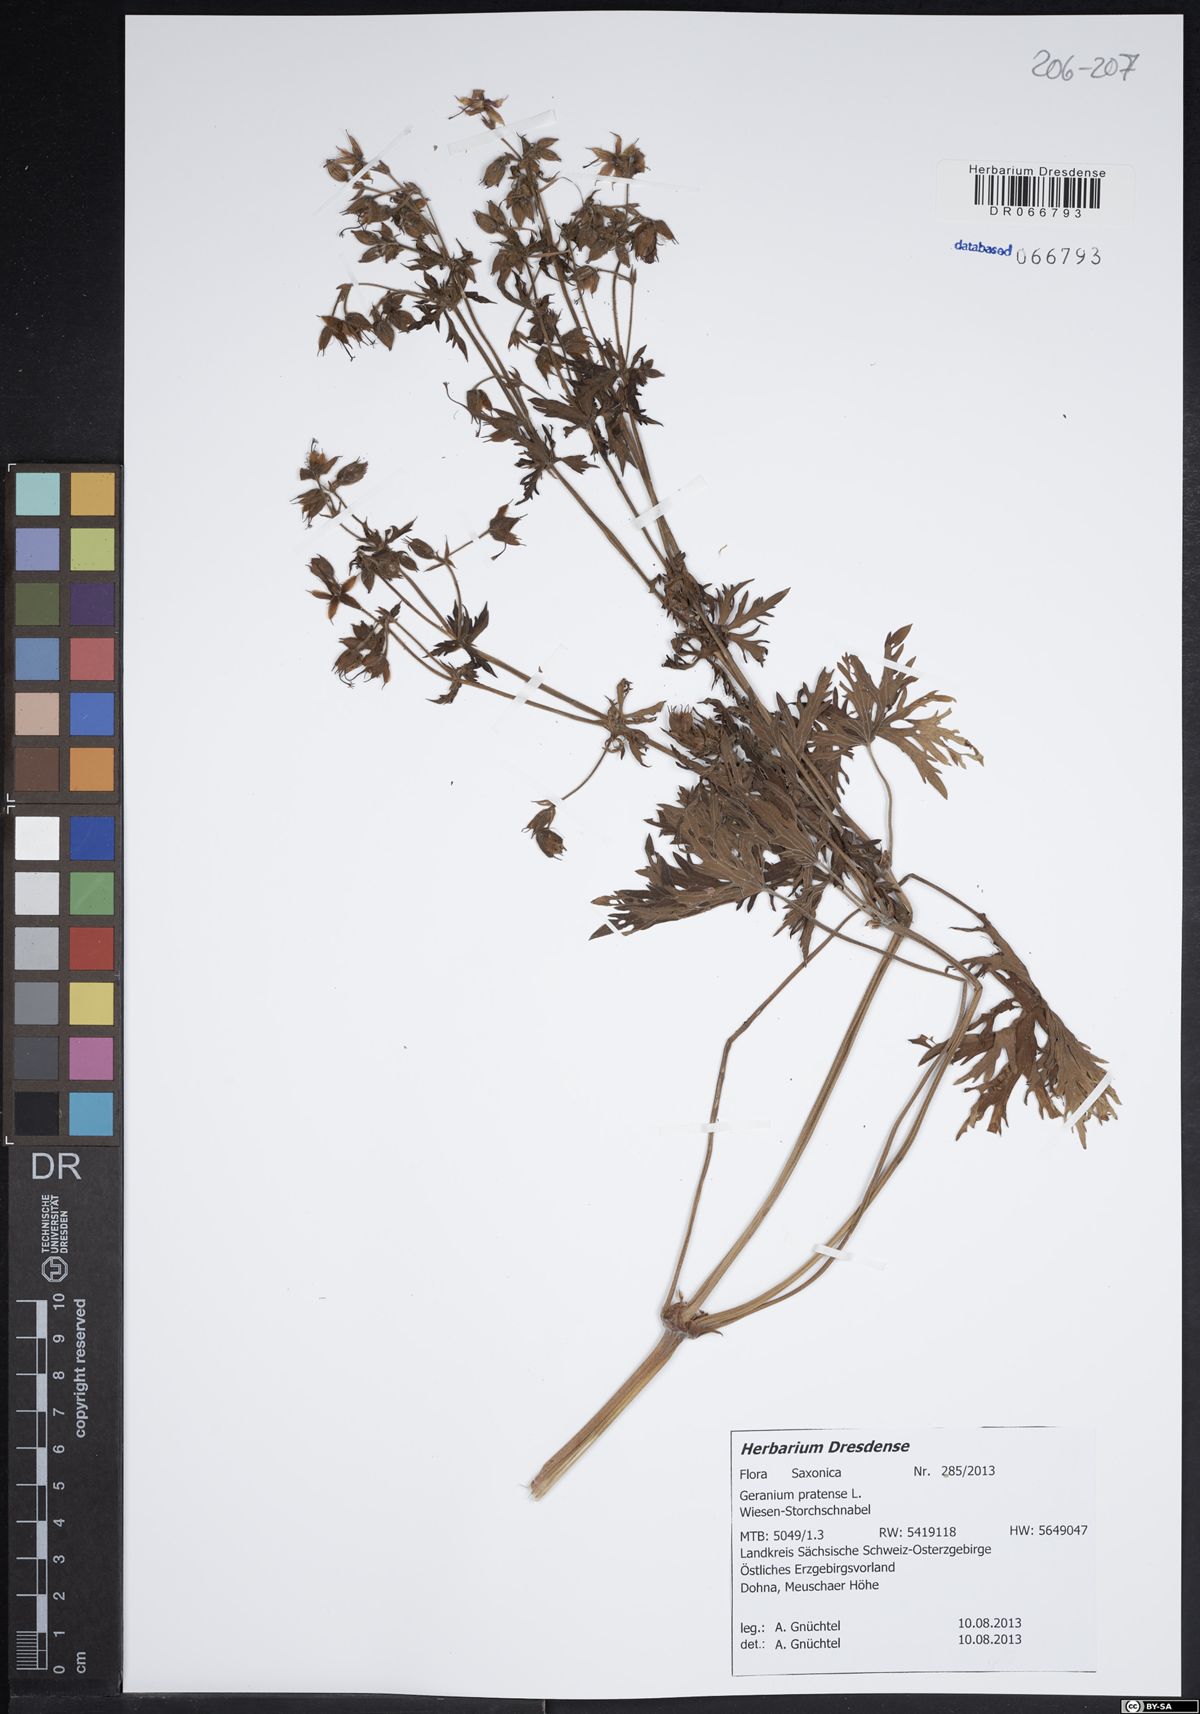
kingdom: Plantae
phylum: Tracheophyta
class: Magnoliopsida
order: Geraniales
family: Geraniaceae
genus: Geranium
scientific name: Geranium pratense
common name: Meadow crane's-bill
